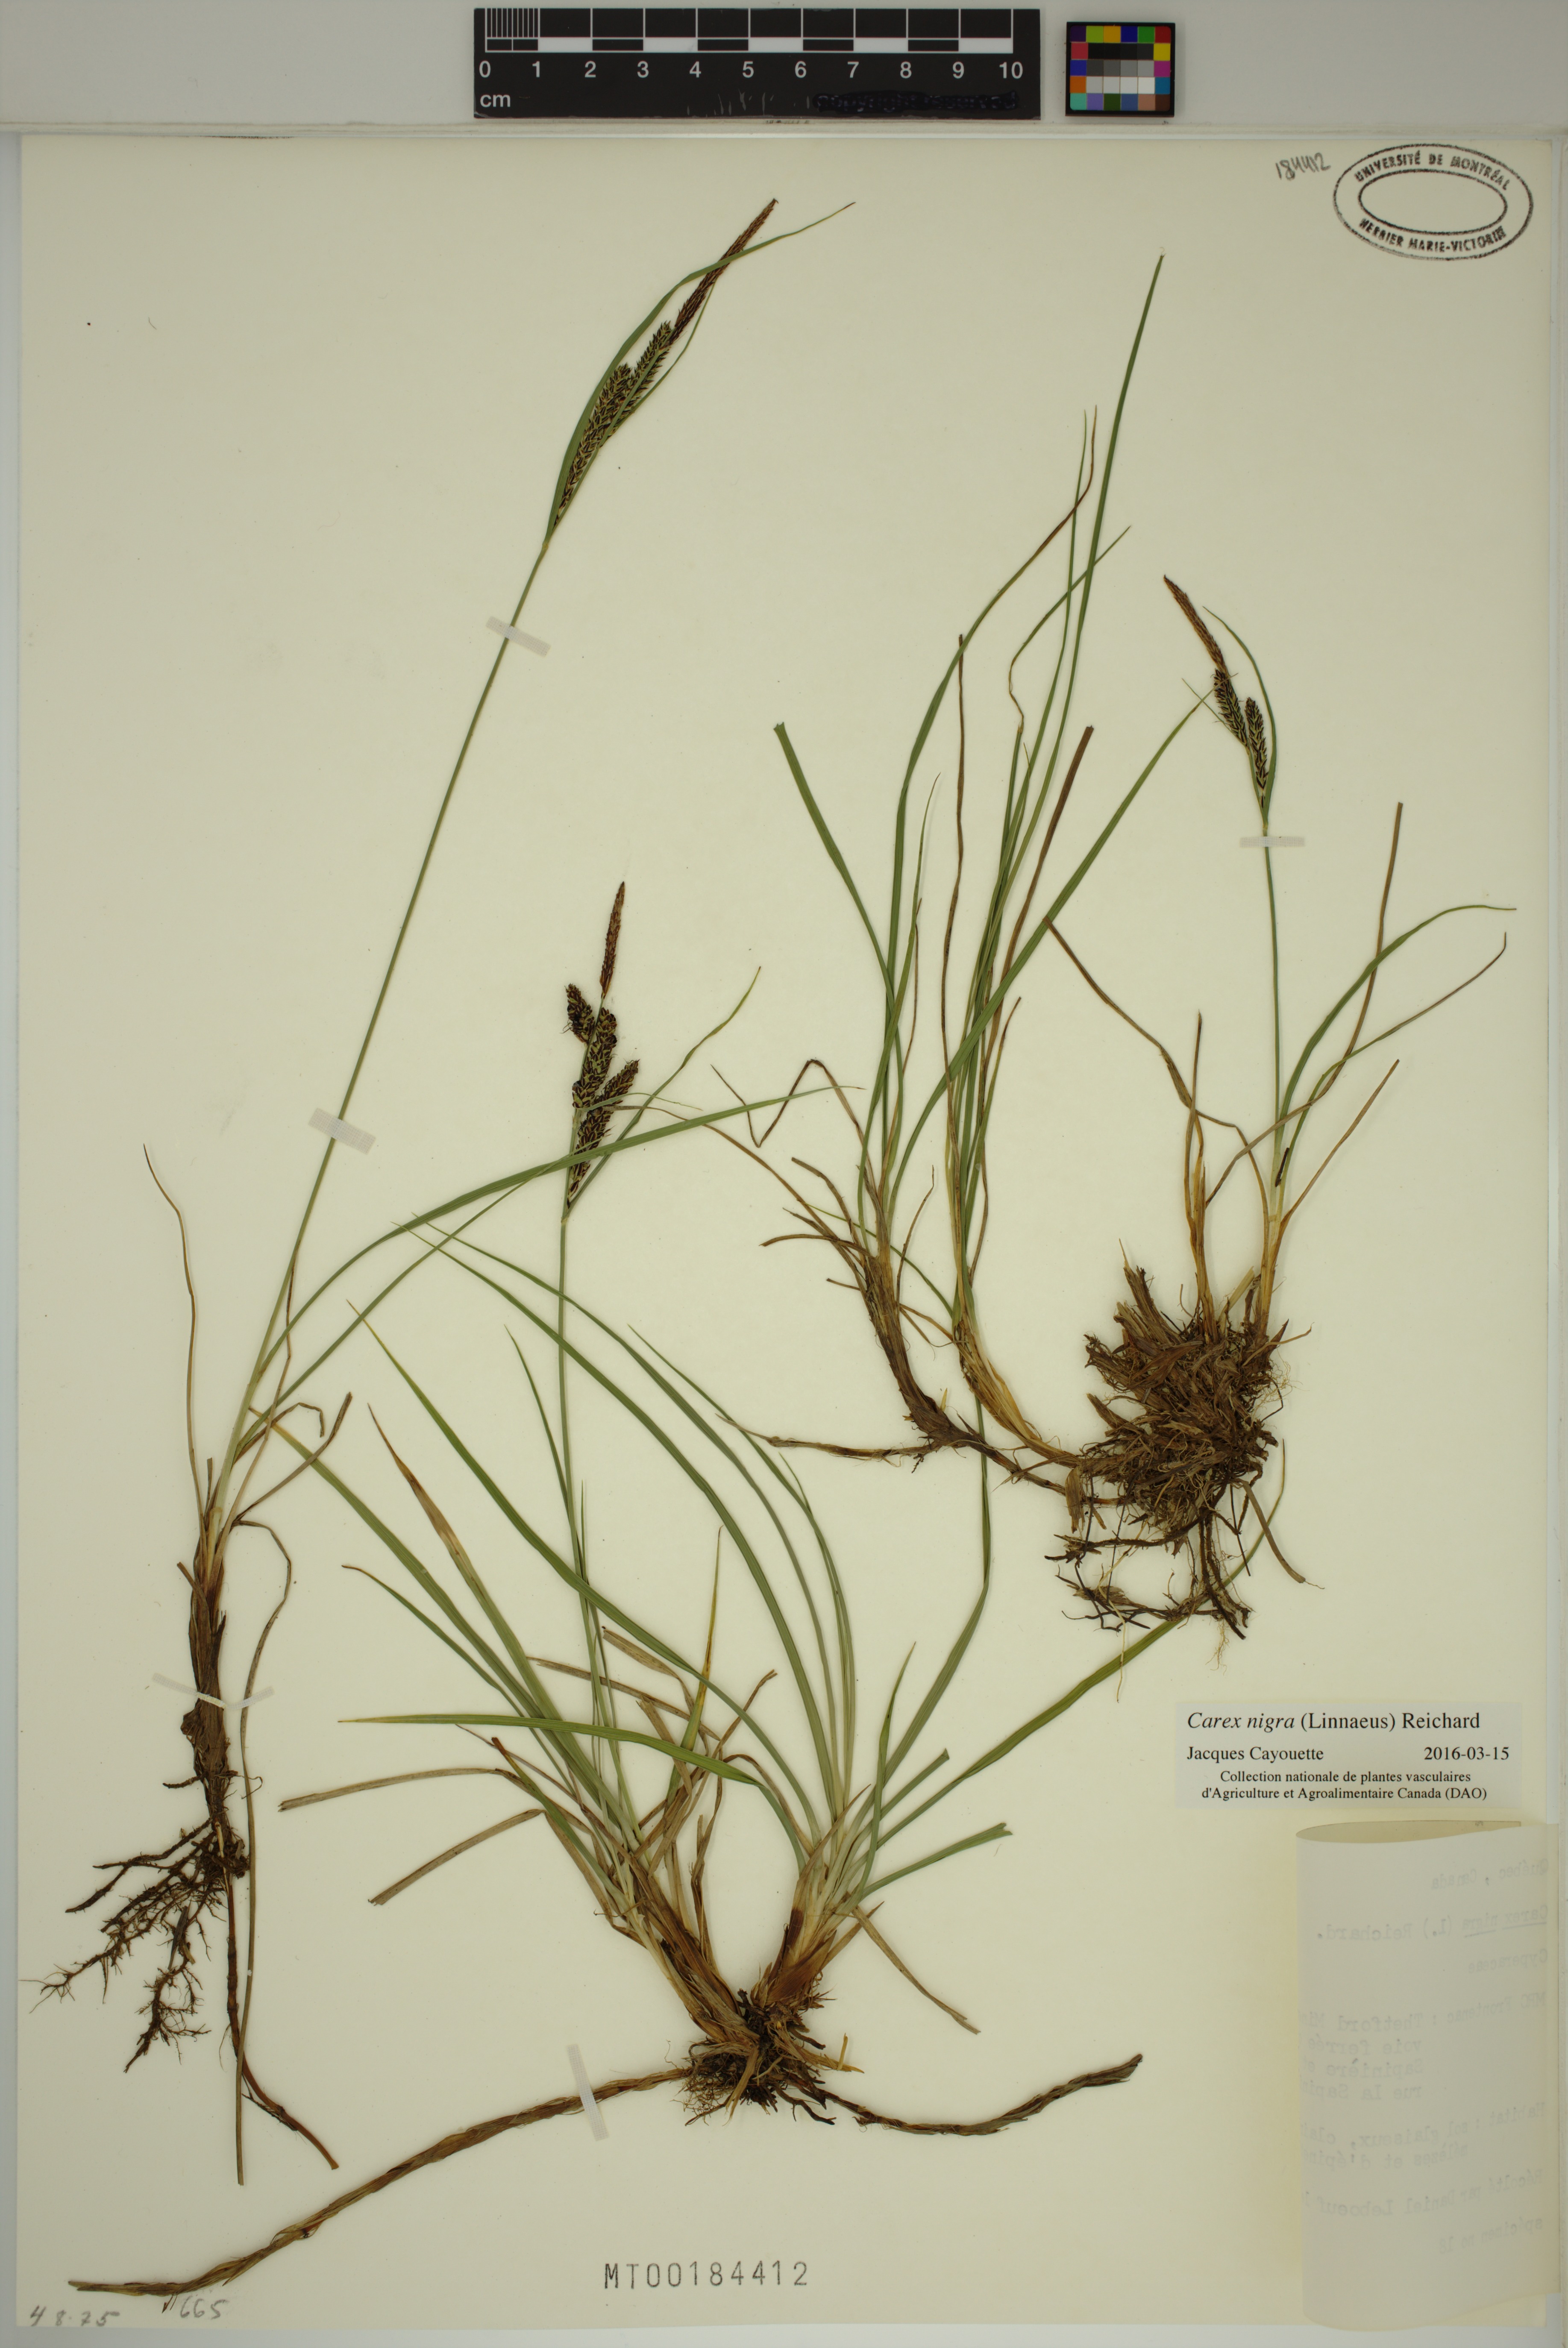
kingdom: Plantae
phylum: Tracheophyta
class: Liliopsida
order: Poales
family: Cyperaceae
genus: Carex
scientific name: Carex nigra
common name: Common sedge
